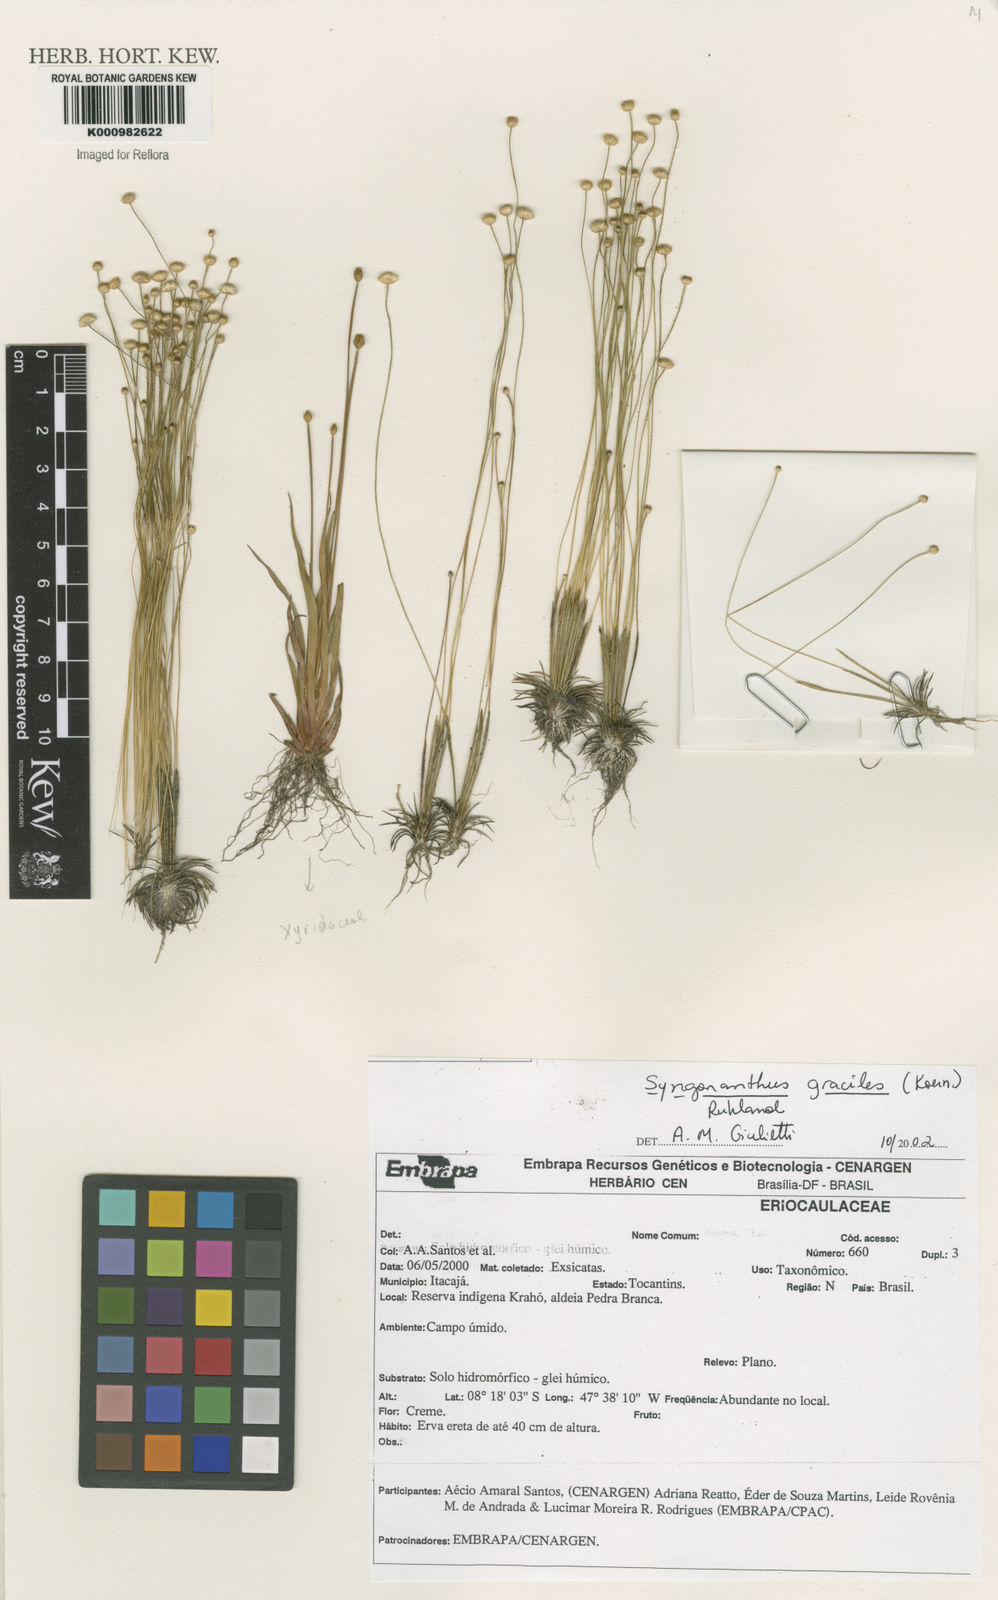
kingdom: Plantae
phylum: Tracheophyta
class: Liliopsida
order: Poales
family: Eriocaulaceae
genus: Syngonanthus
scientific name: Syngonanthus gracilis
